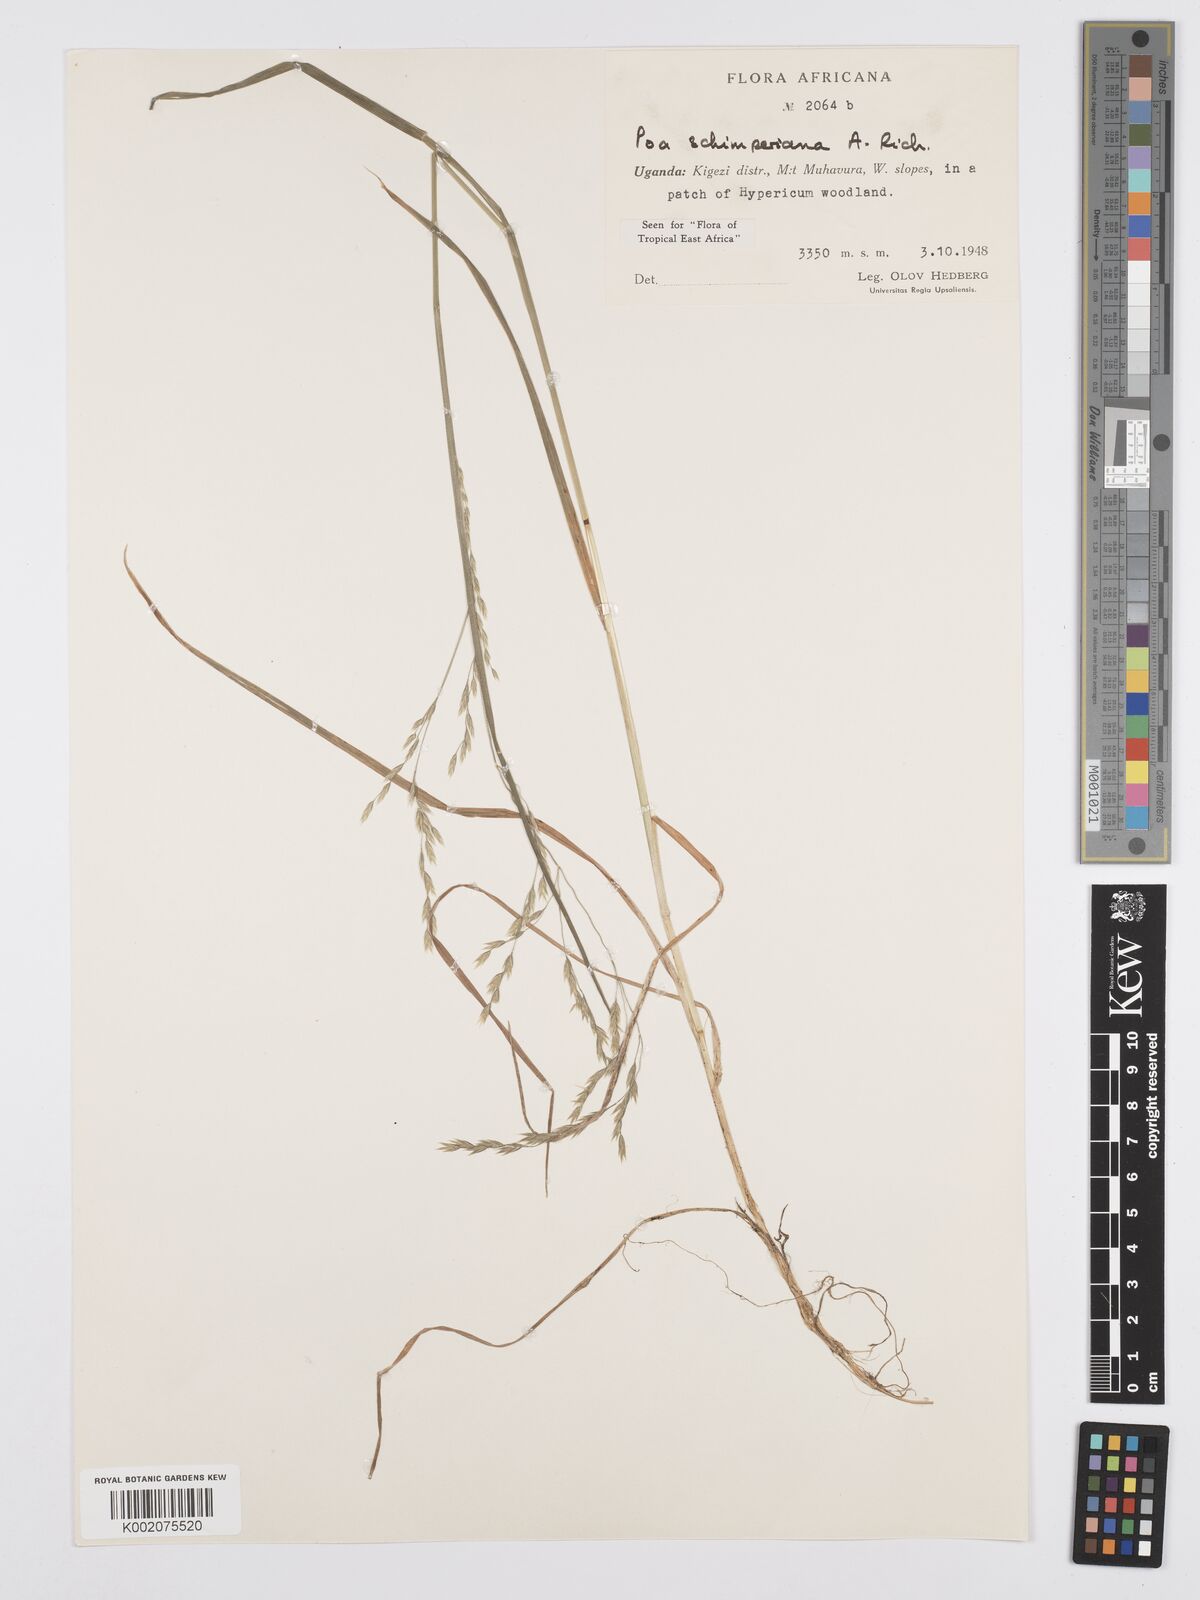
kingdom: Plantae
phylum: Tracheophyta
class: Liliopsida
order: Poales
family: Poaceae
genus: Poa
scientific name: Poa schimperiana
